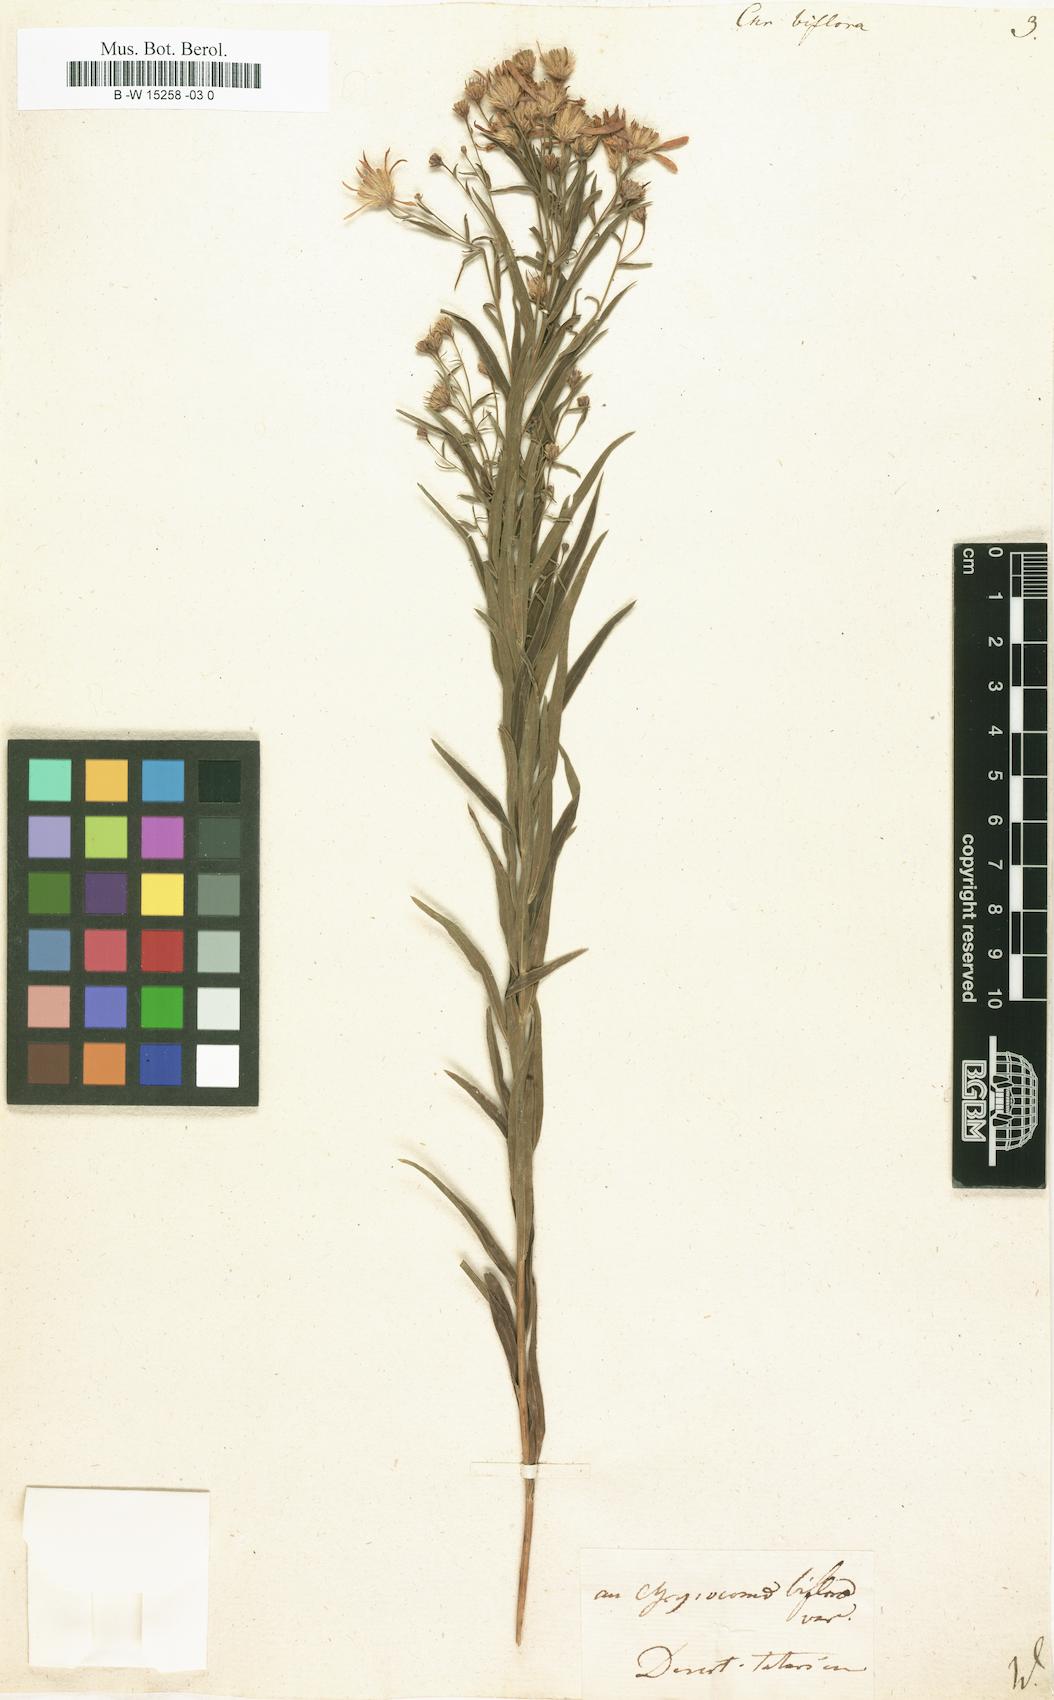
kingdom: Plantae
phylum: Tracheophyta
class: Magnoliopsida
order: Asterales
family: Asteraceae
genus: Galatella
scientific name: Galatella biflora
